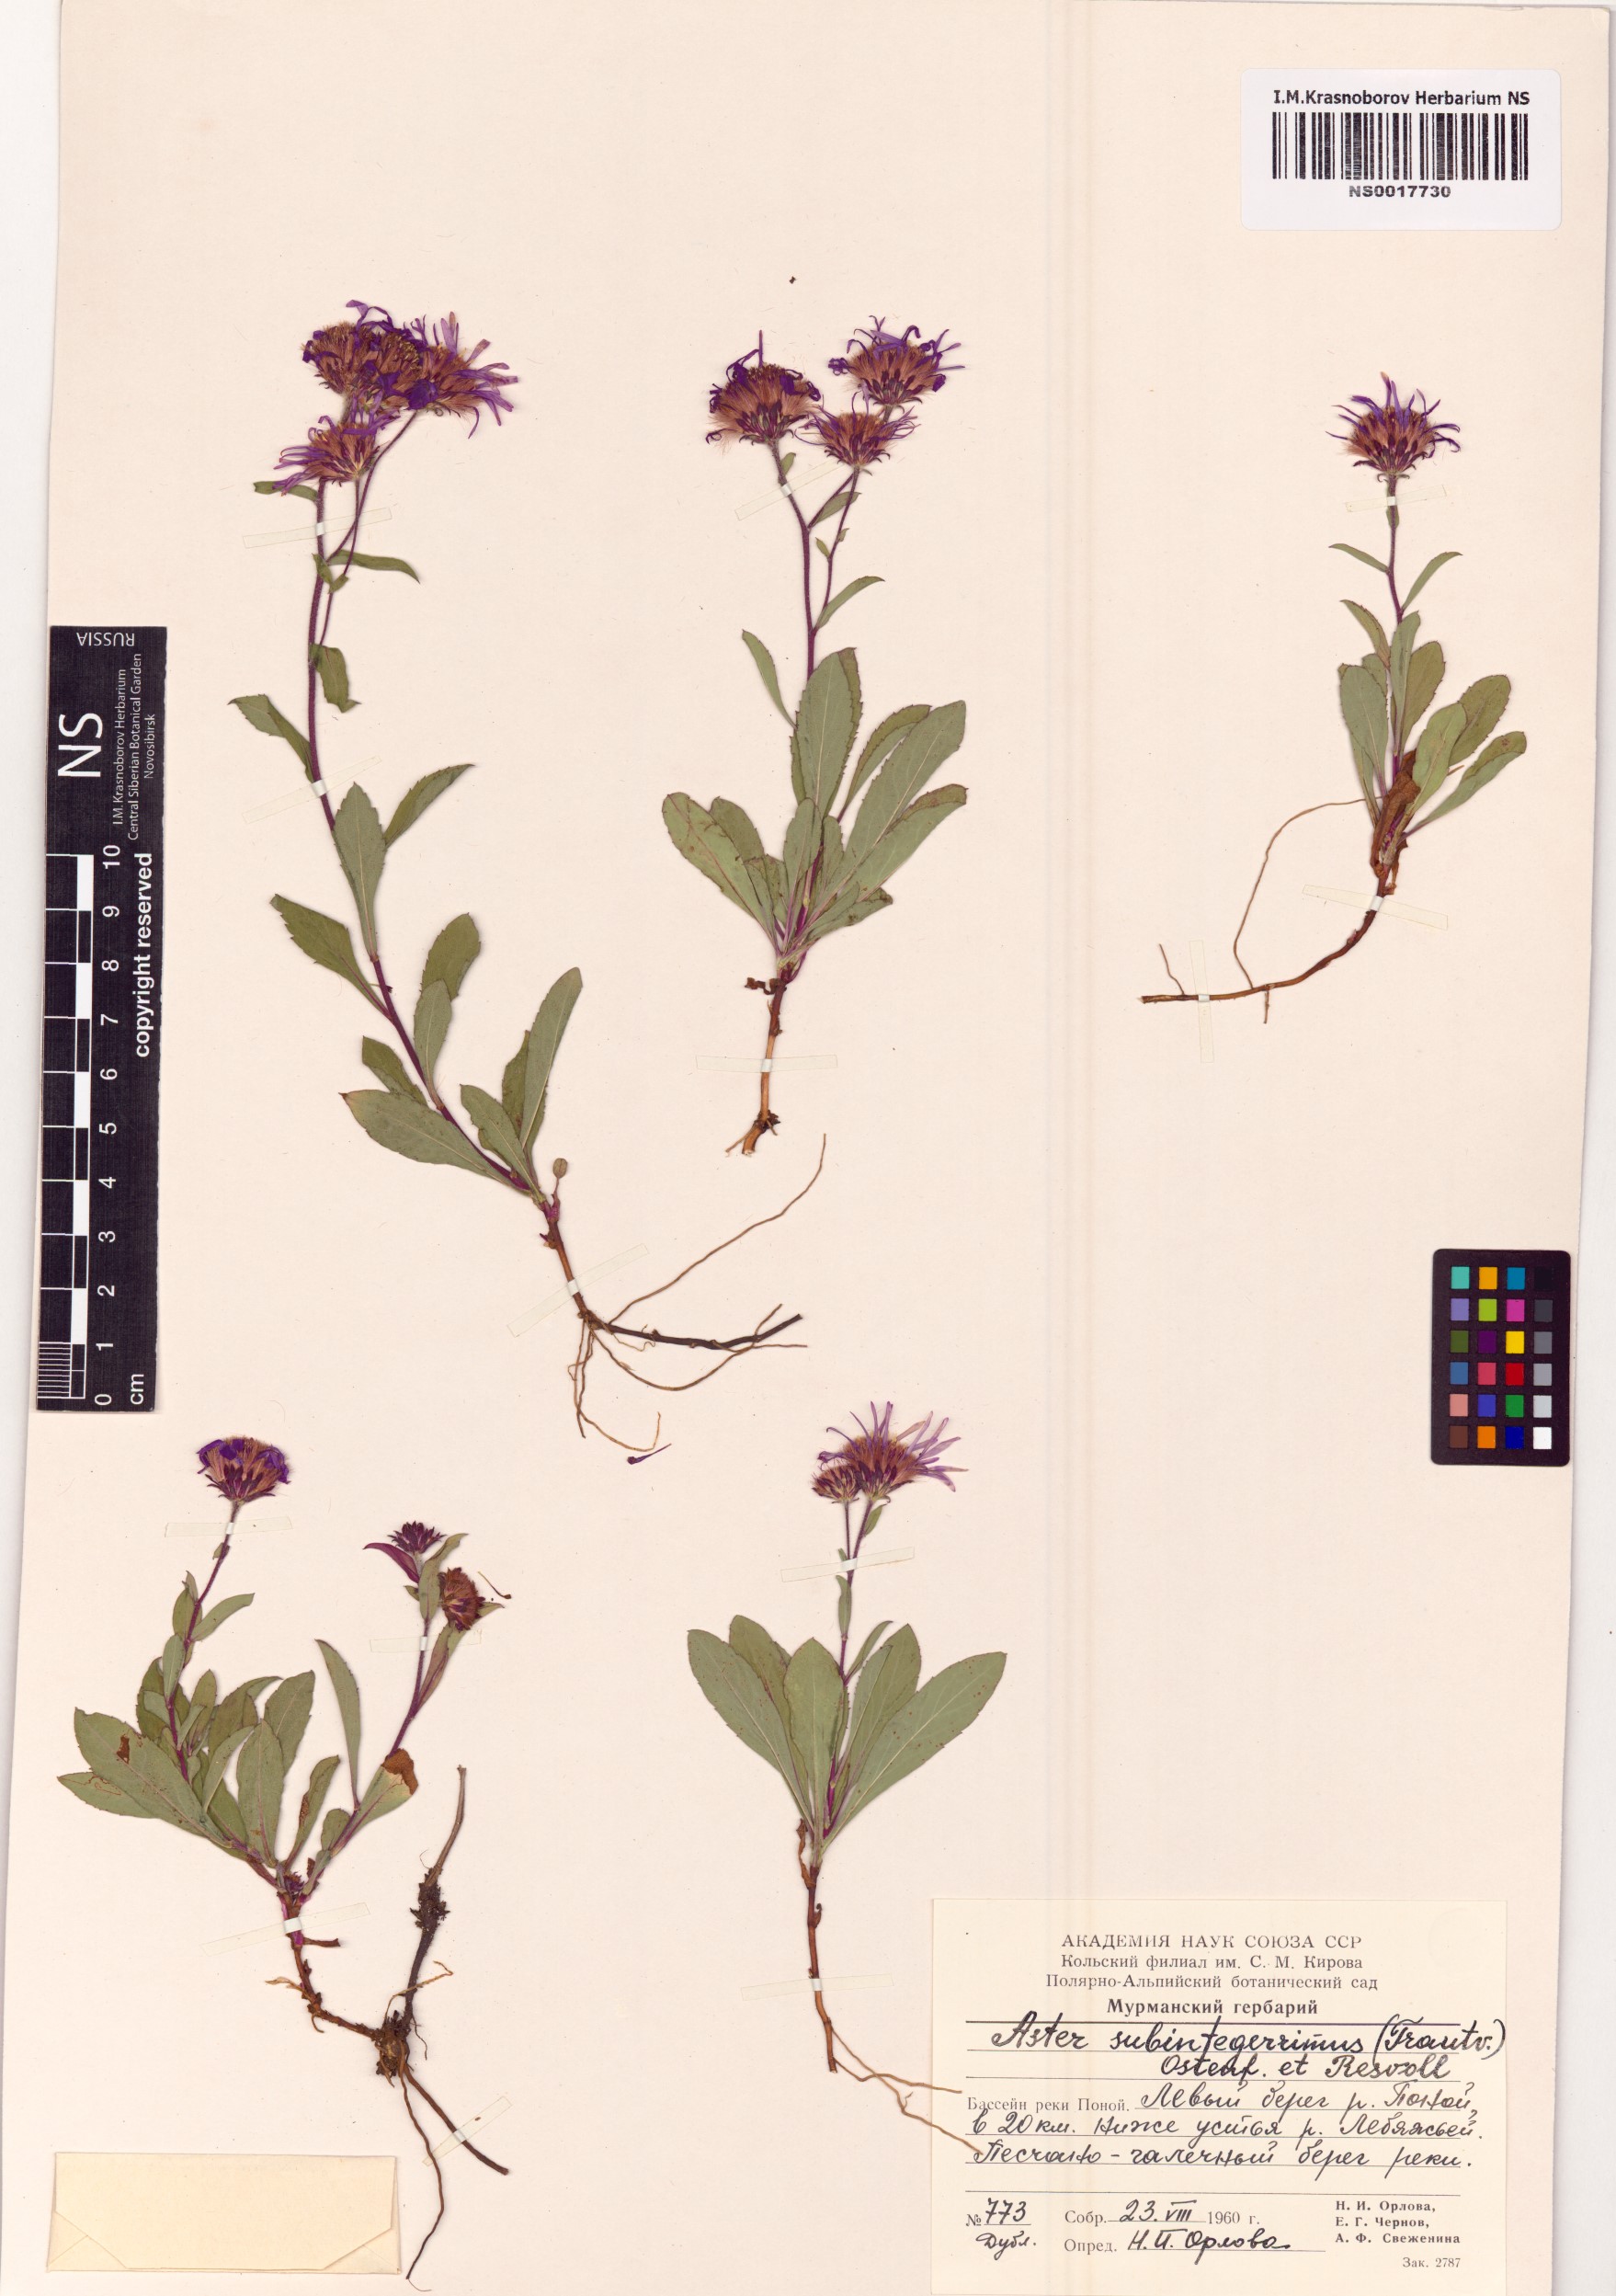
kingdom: Plantae
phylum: Tracheophyta
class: Magnoliopsida
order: Asterales
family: Asteraceae
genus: Eurybia
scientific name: Eurybia sibirica
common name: Arctic aster
